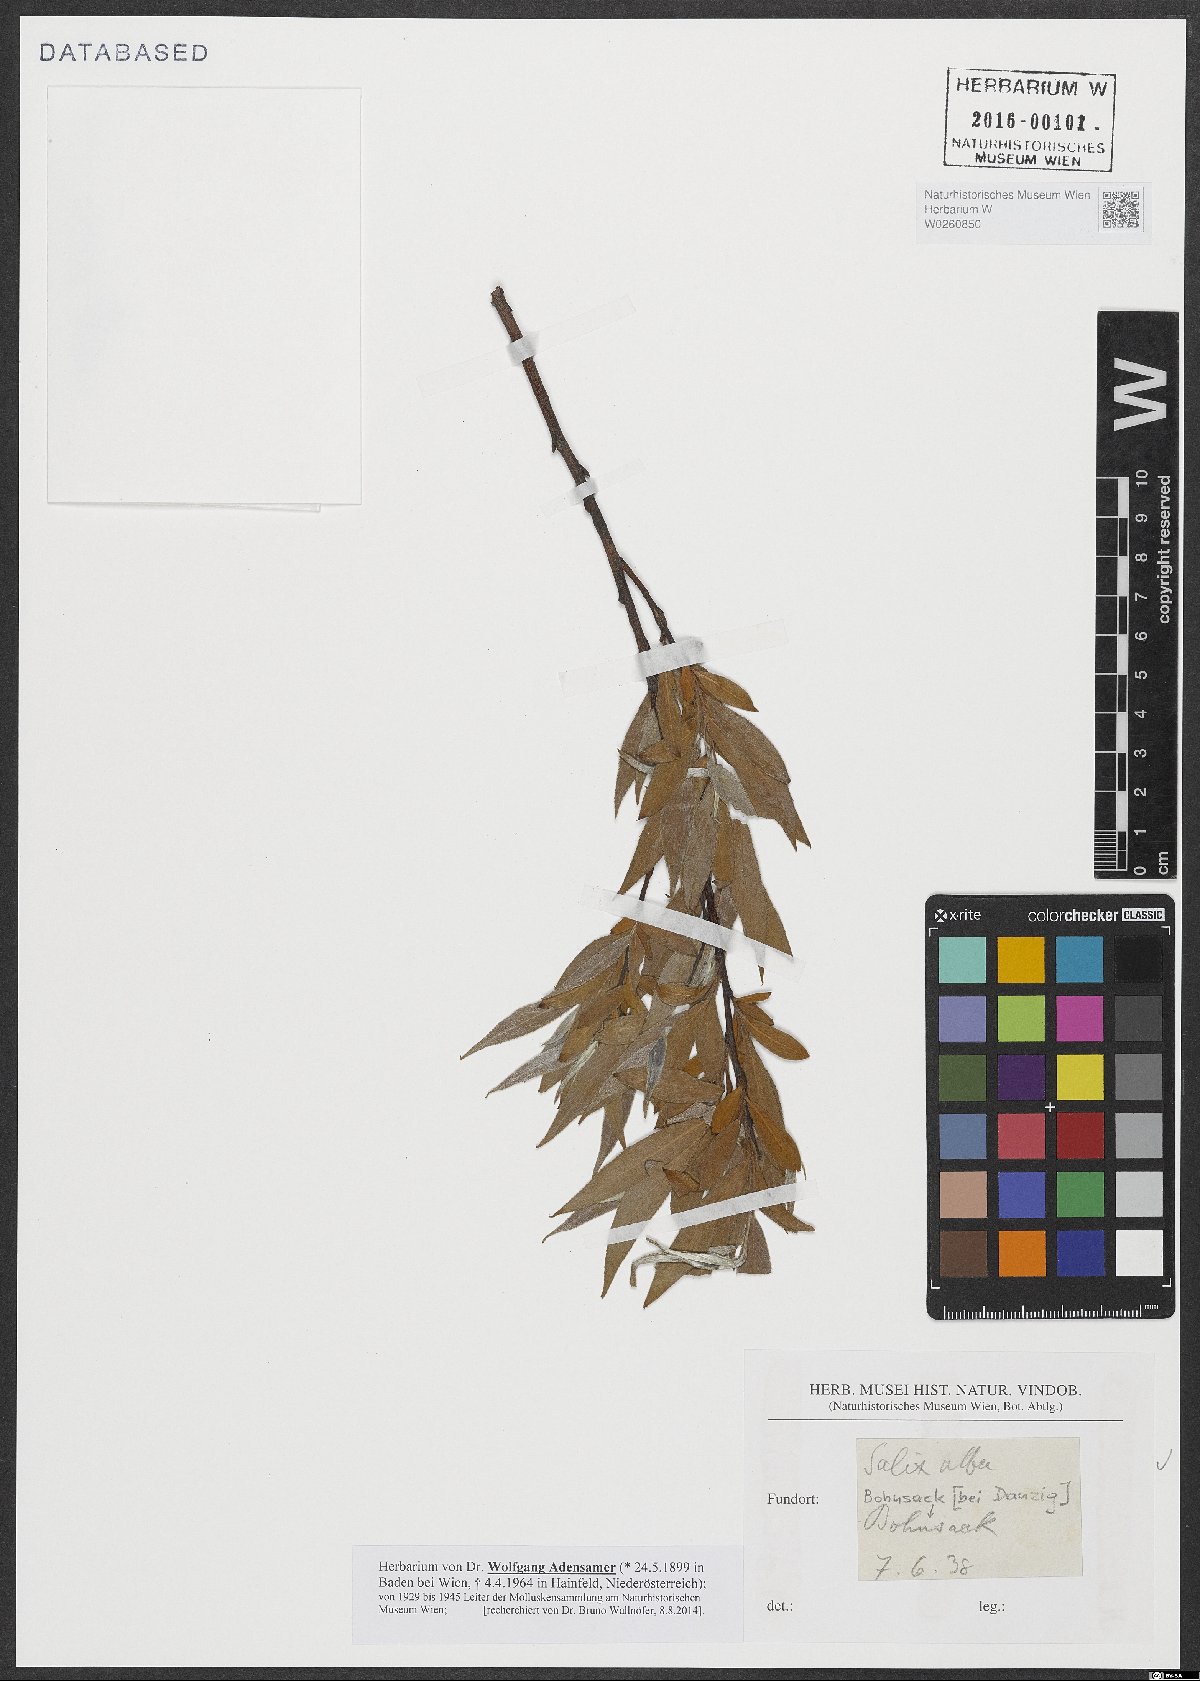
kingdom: Plantae
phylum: Tracheophyta
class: Magnoliopsida
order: Malpighiales
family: Salicaceae
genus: Salix
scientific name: Salix alba
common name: White willow
